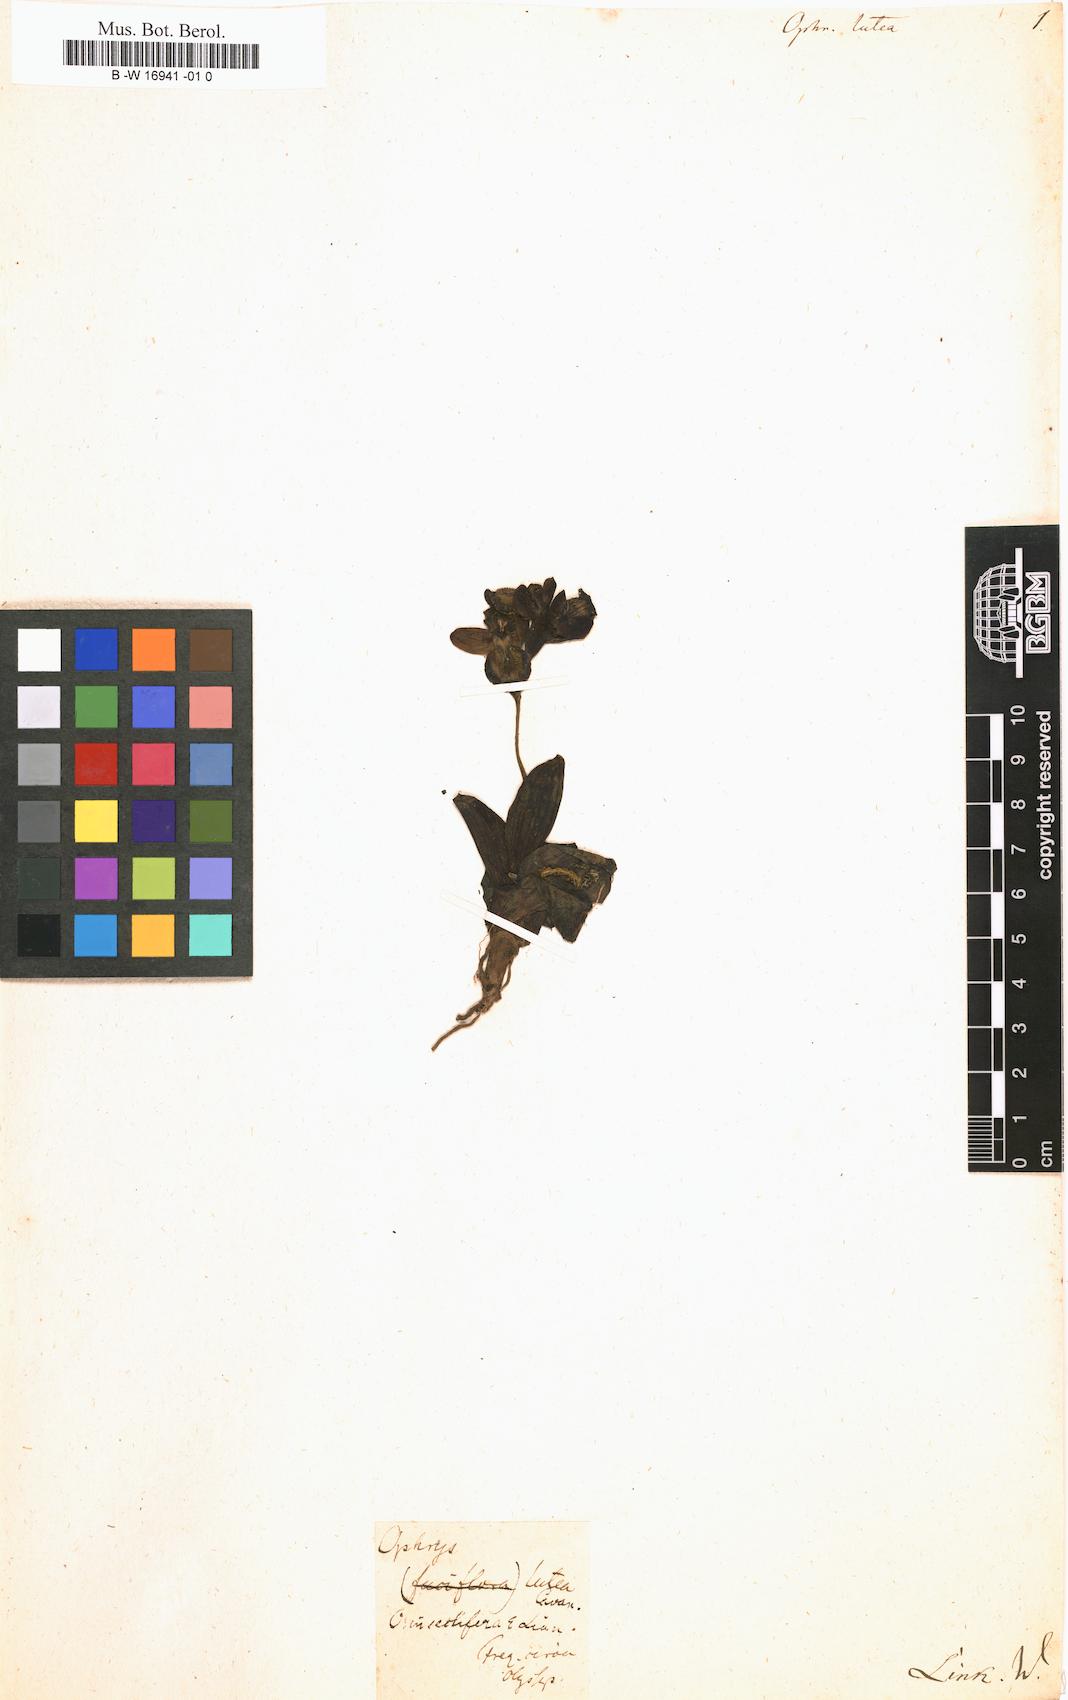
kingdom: Plantae
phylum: Tracheophyta
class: Liliopsida
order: Asparagales
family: Orchidaceae
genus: Ophrys
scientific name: Ophrys lutea
